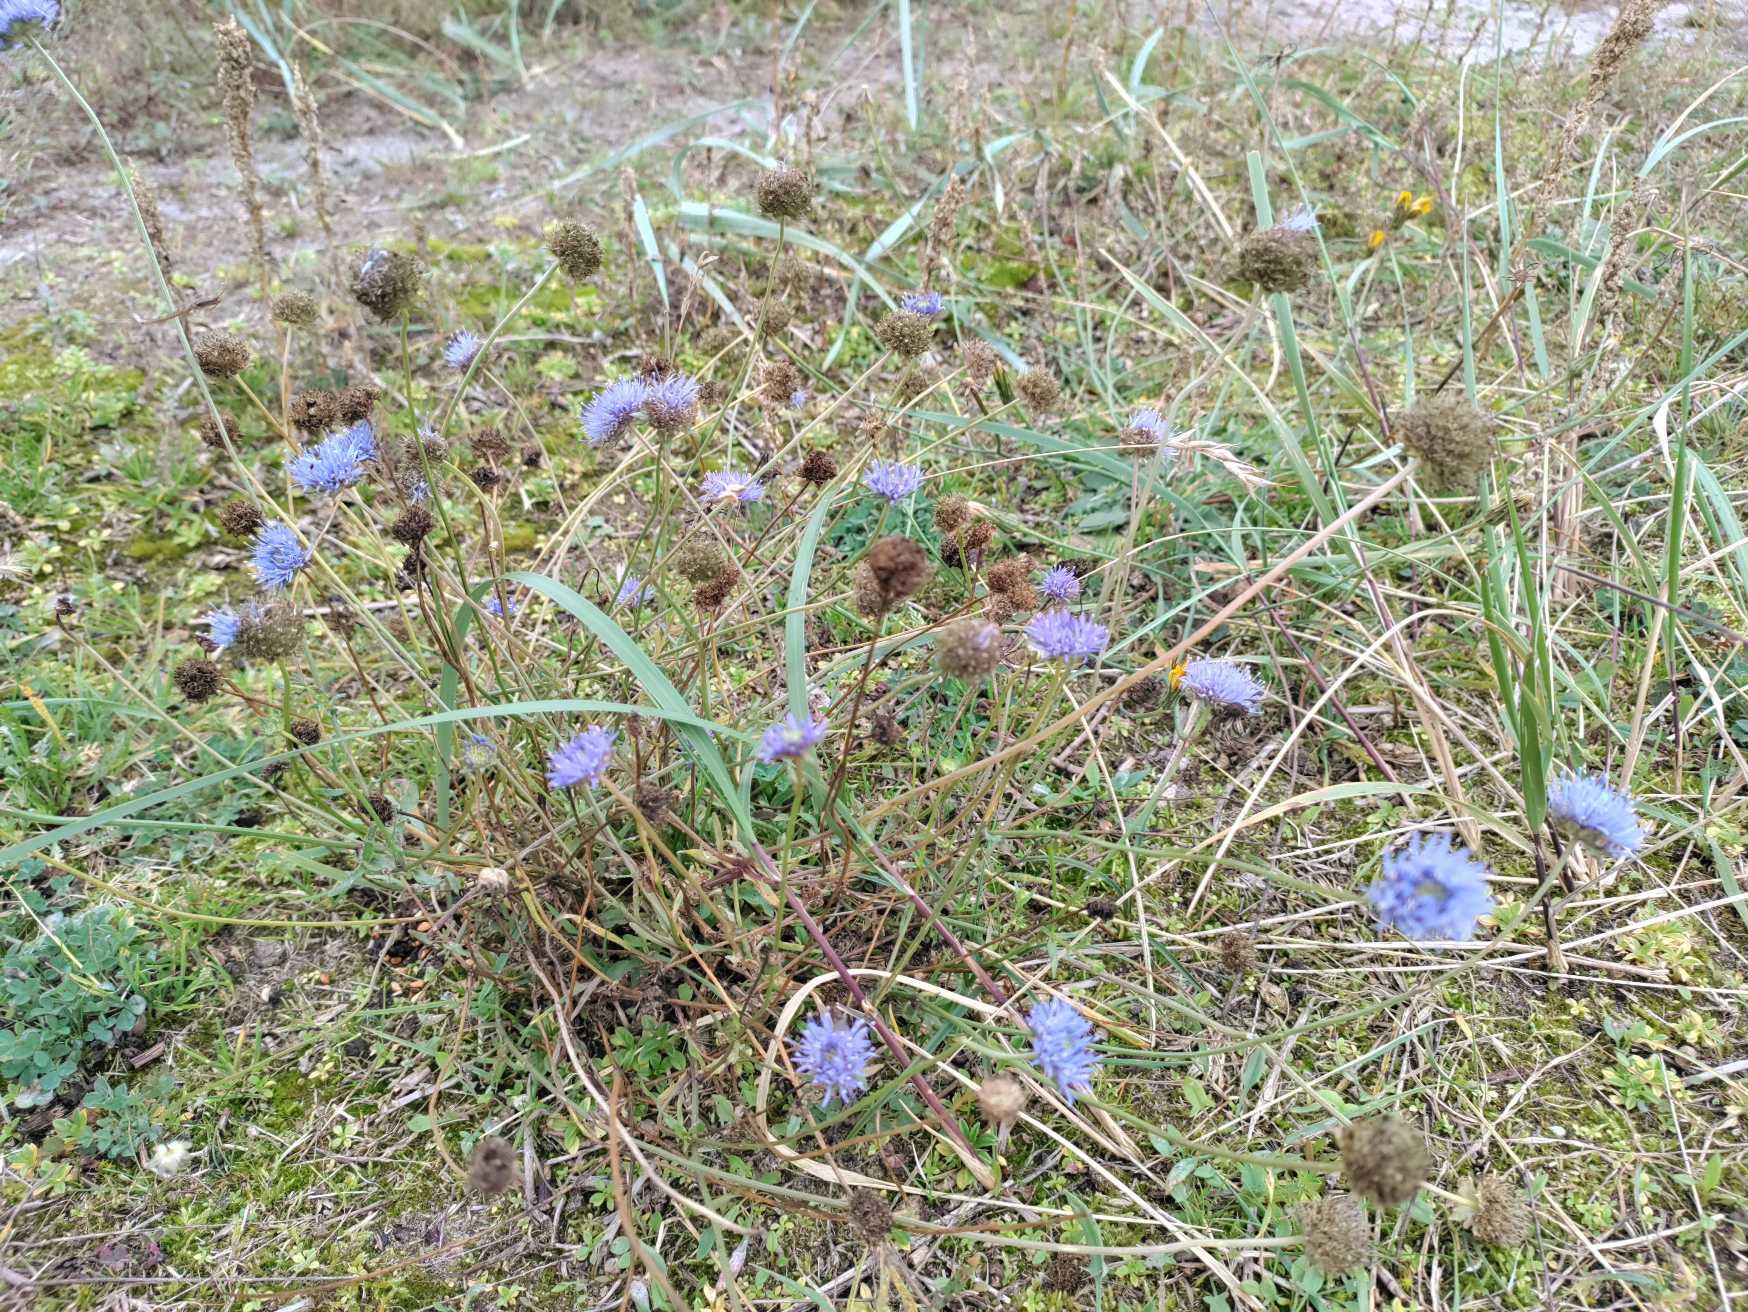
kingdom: Plantae
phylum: Tracheophyta
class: Magnoliopsida
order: Asterales
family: Campanulaceae
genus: Jasione
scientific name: Jasione montana
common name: Blåmunke
